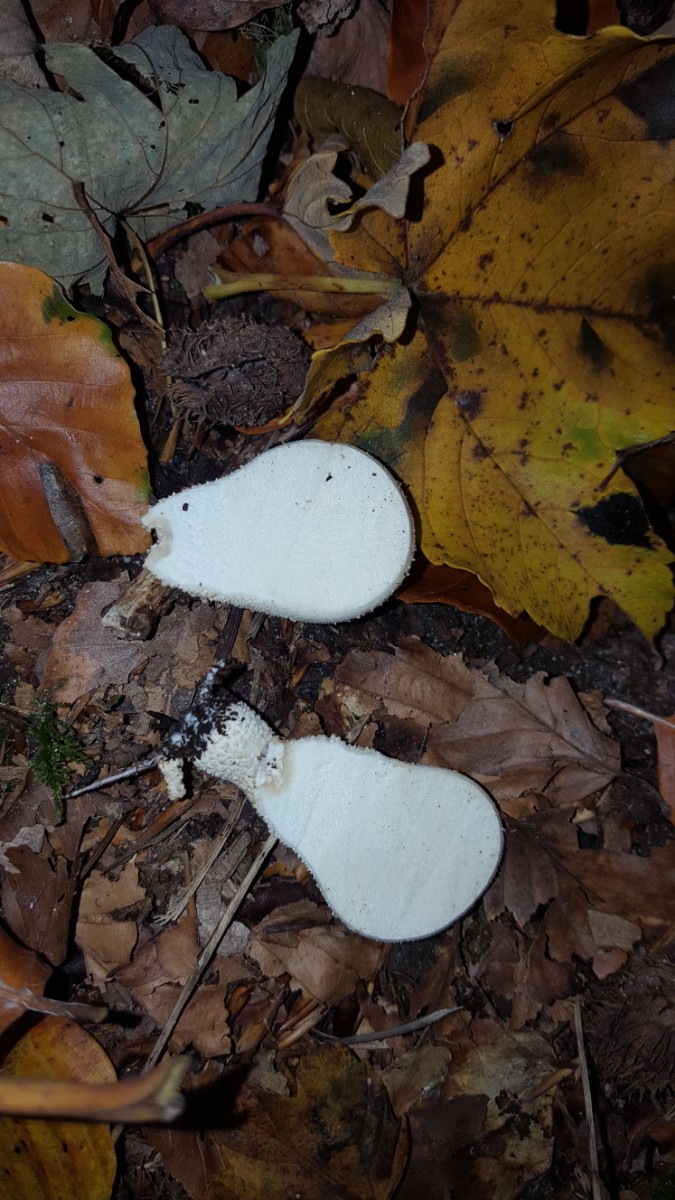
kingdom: Fungi
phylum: Basidiomycota
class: Agaricomycetes
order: Agaricales
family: Lycoperdaceae
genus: Lycoperdon
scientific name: Lycoperdon perlatum
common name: krystal-støvbold
